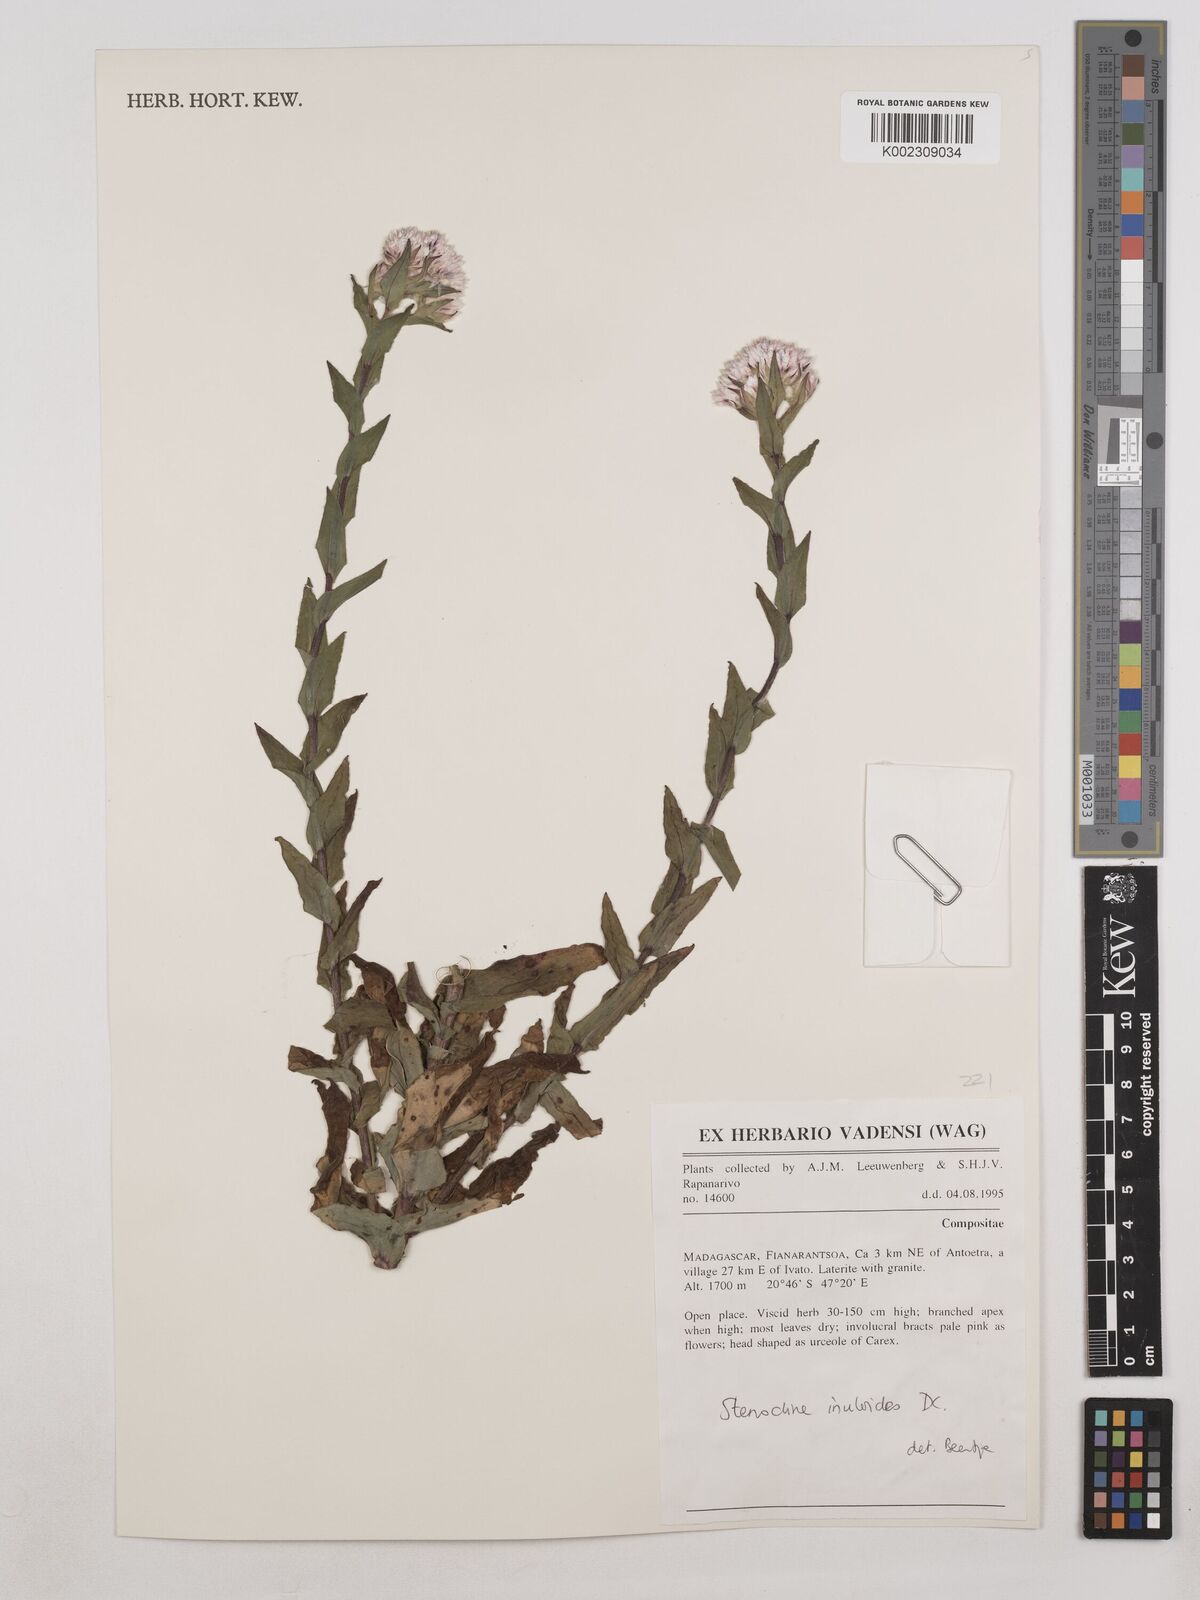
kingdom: Plantae
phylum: Tracheophyta
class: Magnoliopsida
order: Asterales
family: Asteraceae
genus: Stenocline
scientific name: Stenocline inuloides
